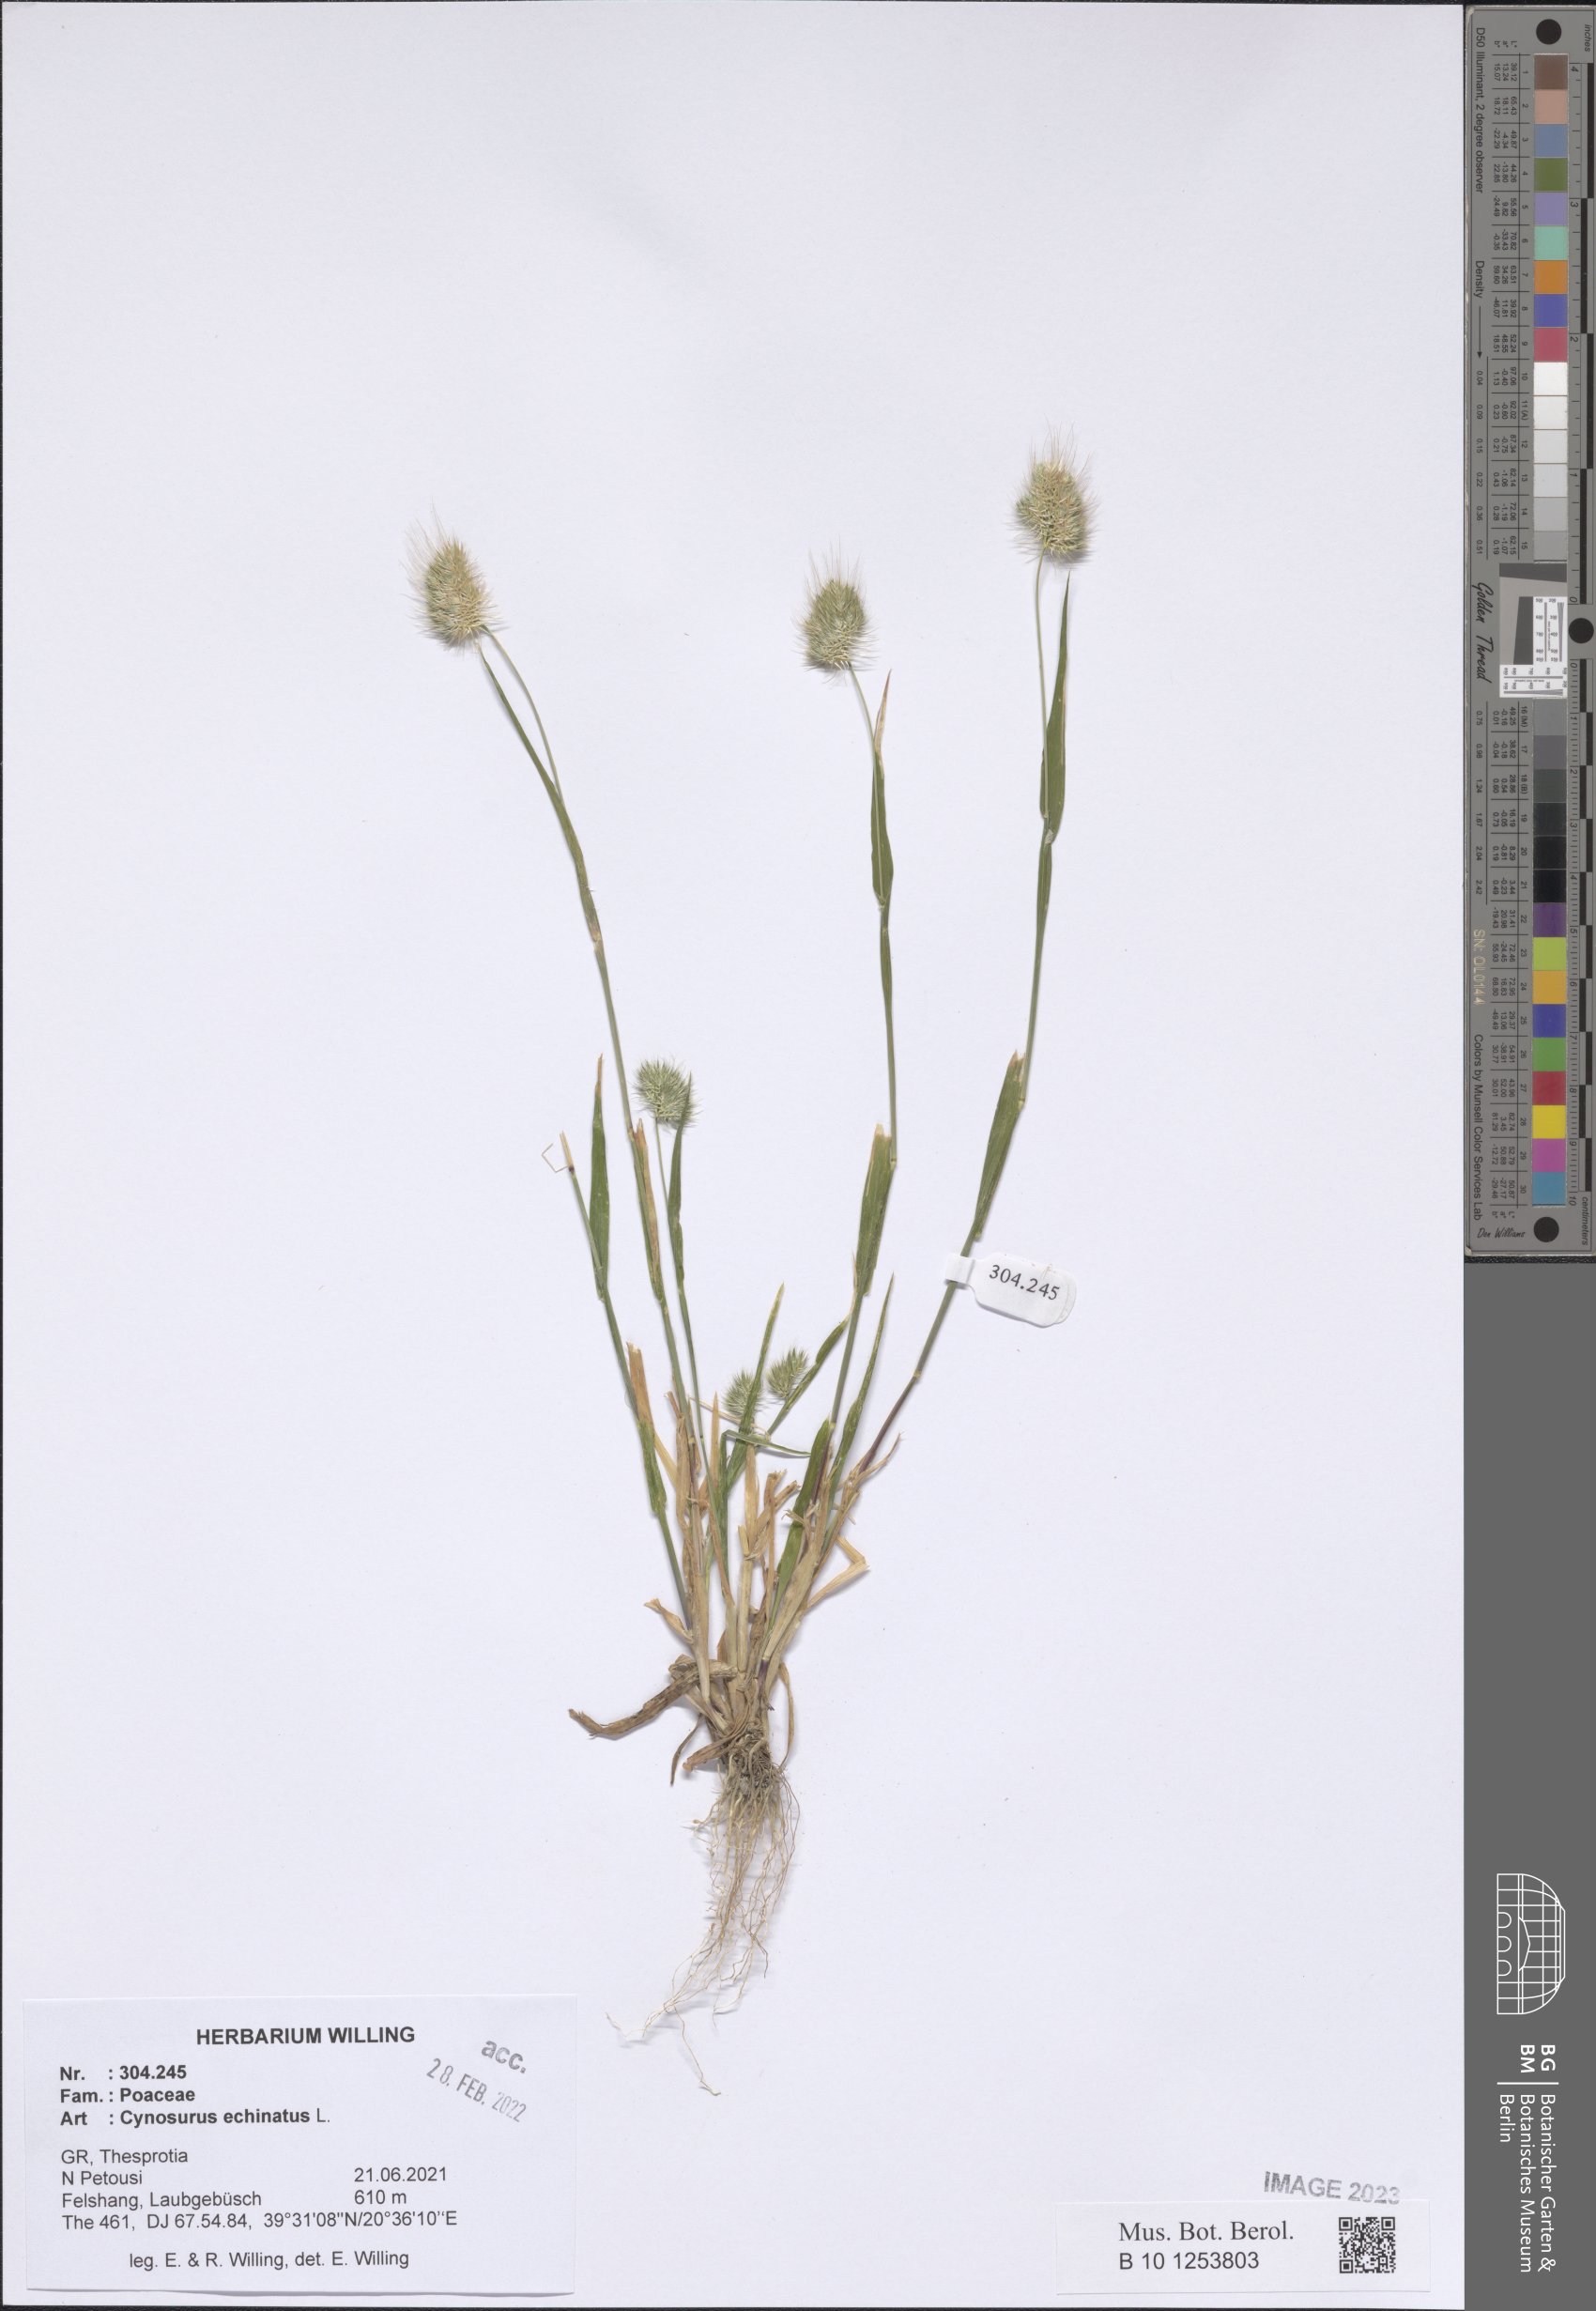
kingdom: Plantae
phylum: Tracheophyta
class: Liliopsida
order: Poales
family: Poaceae
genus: Cynosurus
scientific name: Cynosurus echinatus
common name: Rough dog's-tail
